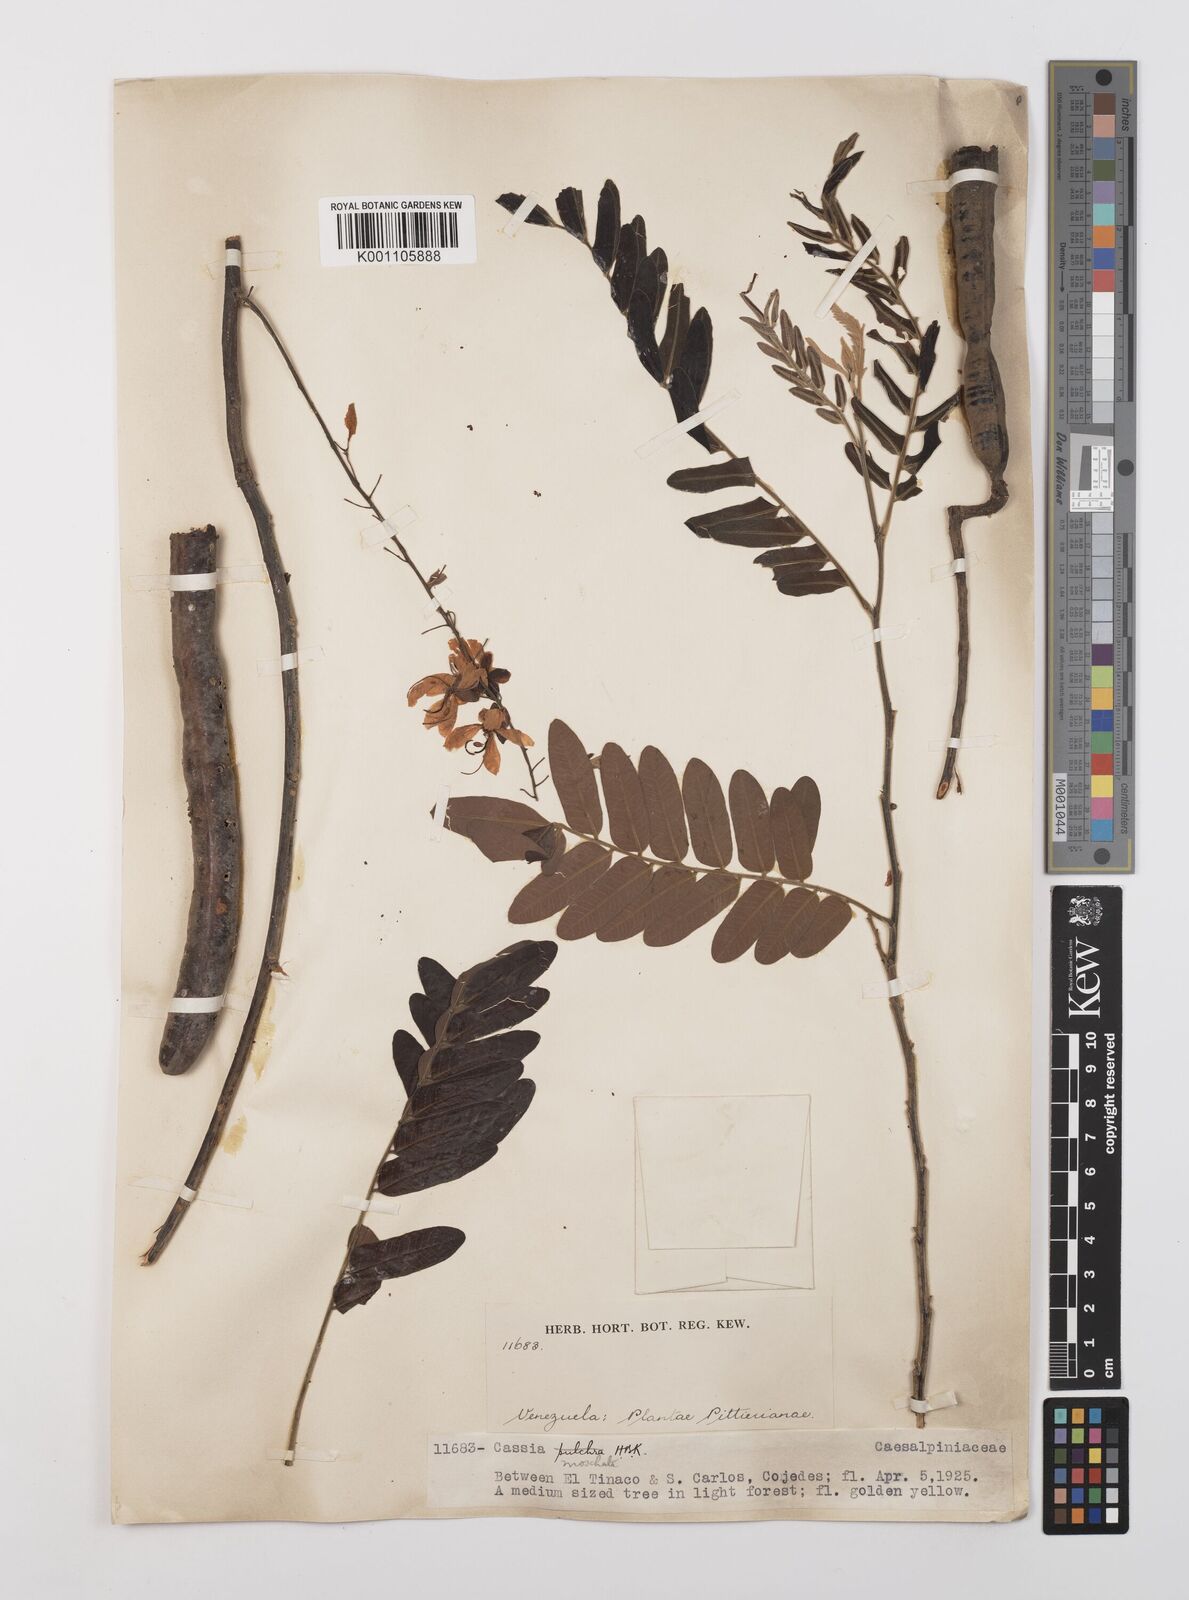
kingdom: Plantae
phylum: Tracheophyta
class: Magnoliopsida
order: Fabales
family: Fabaceae
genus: Cassia
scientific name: Cassia moschata
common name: Bronze shower tree
